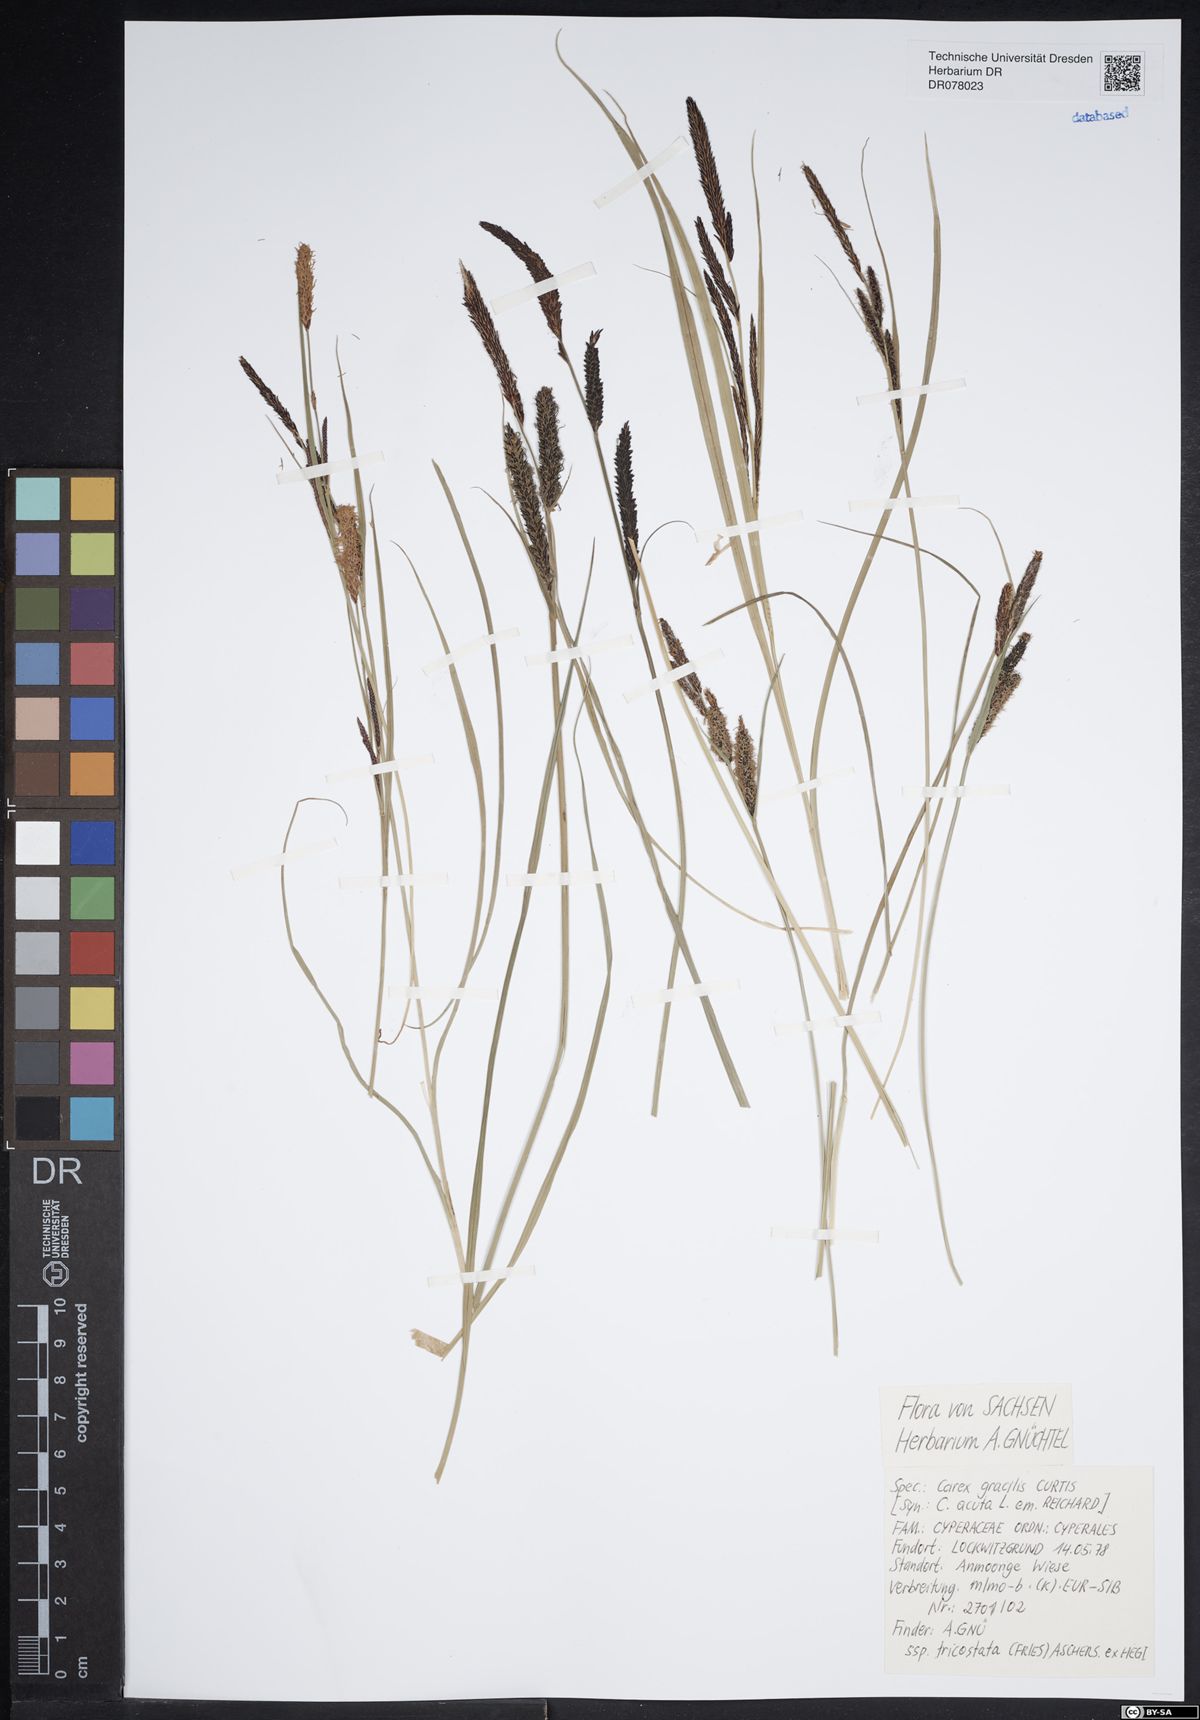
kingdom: Plantae
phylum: Tracheophyta
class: Liliopsida
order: Poales
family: Cyperaceae
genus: Carex
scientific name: Carex acuta
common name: Slender tufted-sedge
